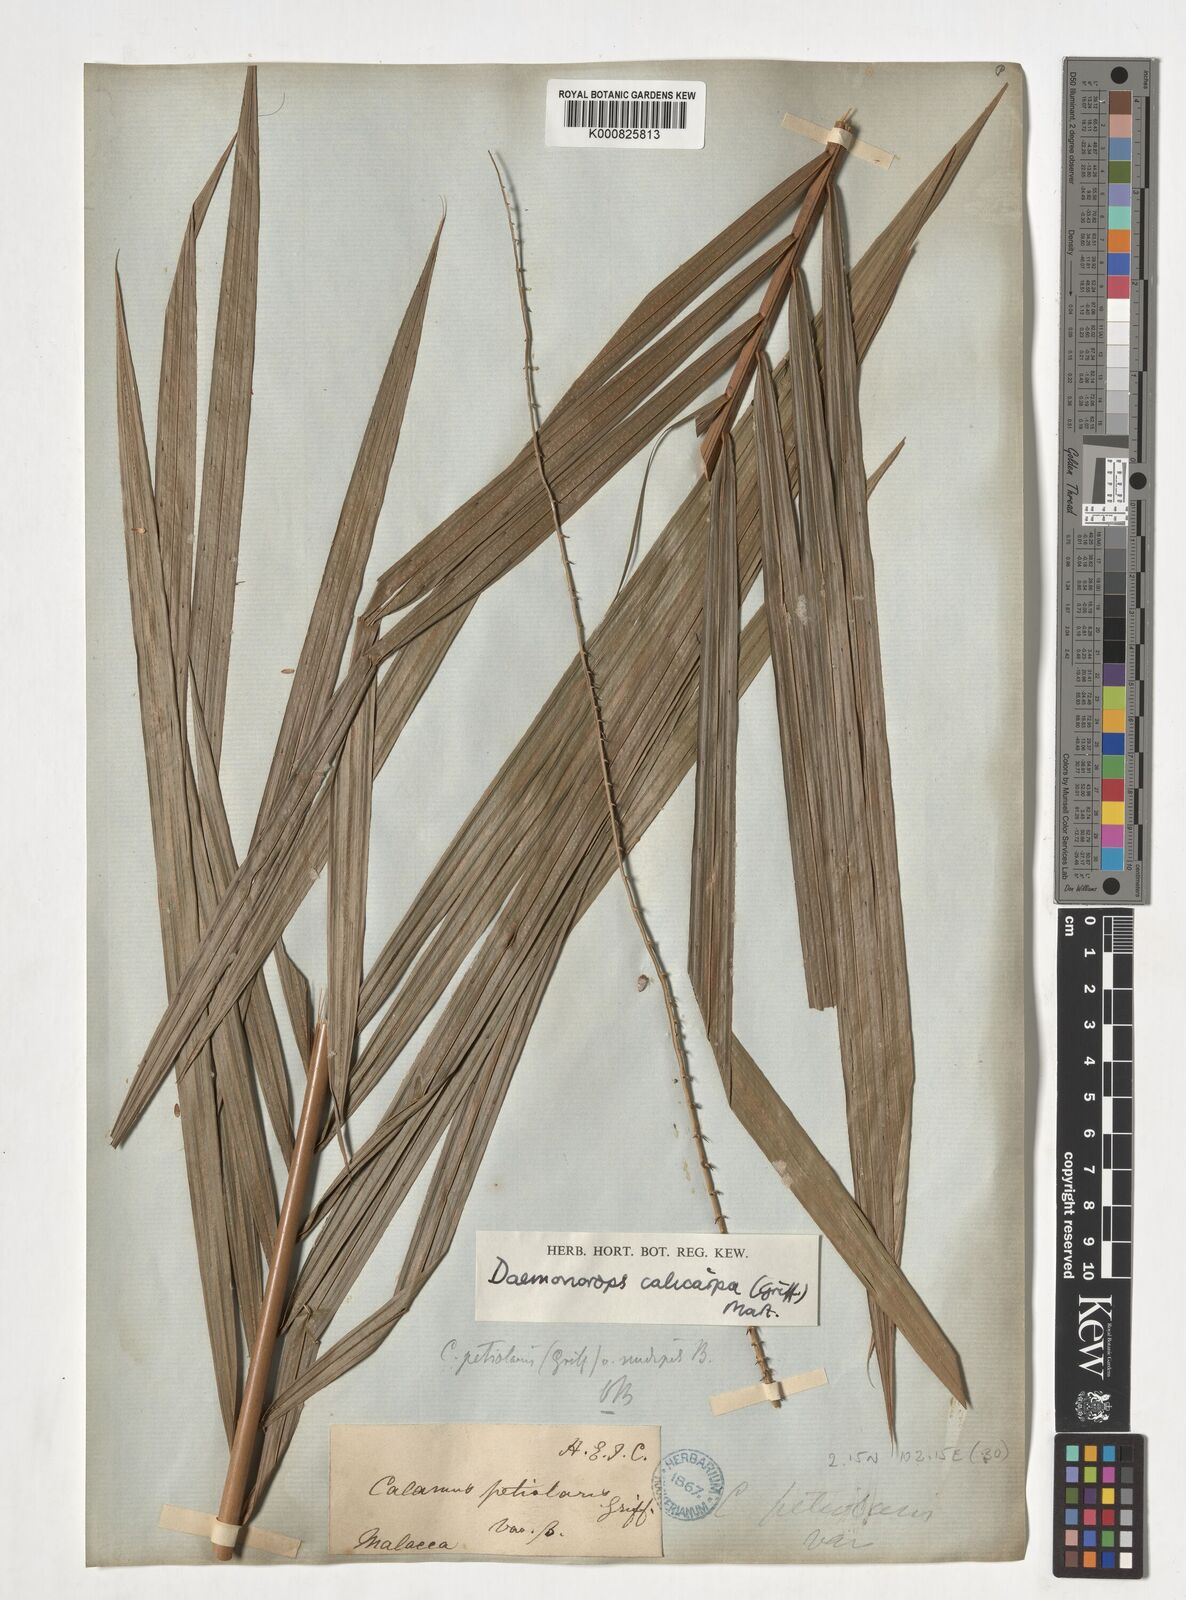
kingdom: Plantae
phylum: Tracheophyta
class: Liliopsida
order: Arecales
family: Arecaceae
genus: Calamus
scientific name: Calamus calicarpus
